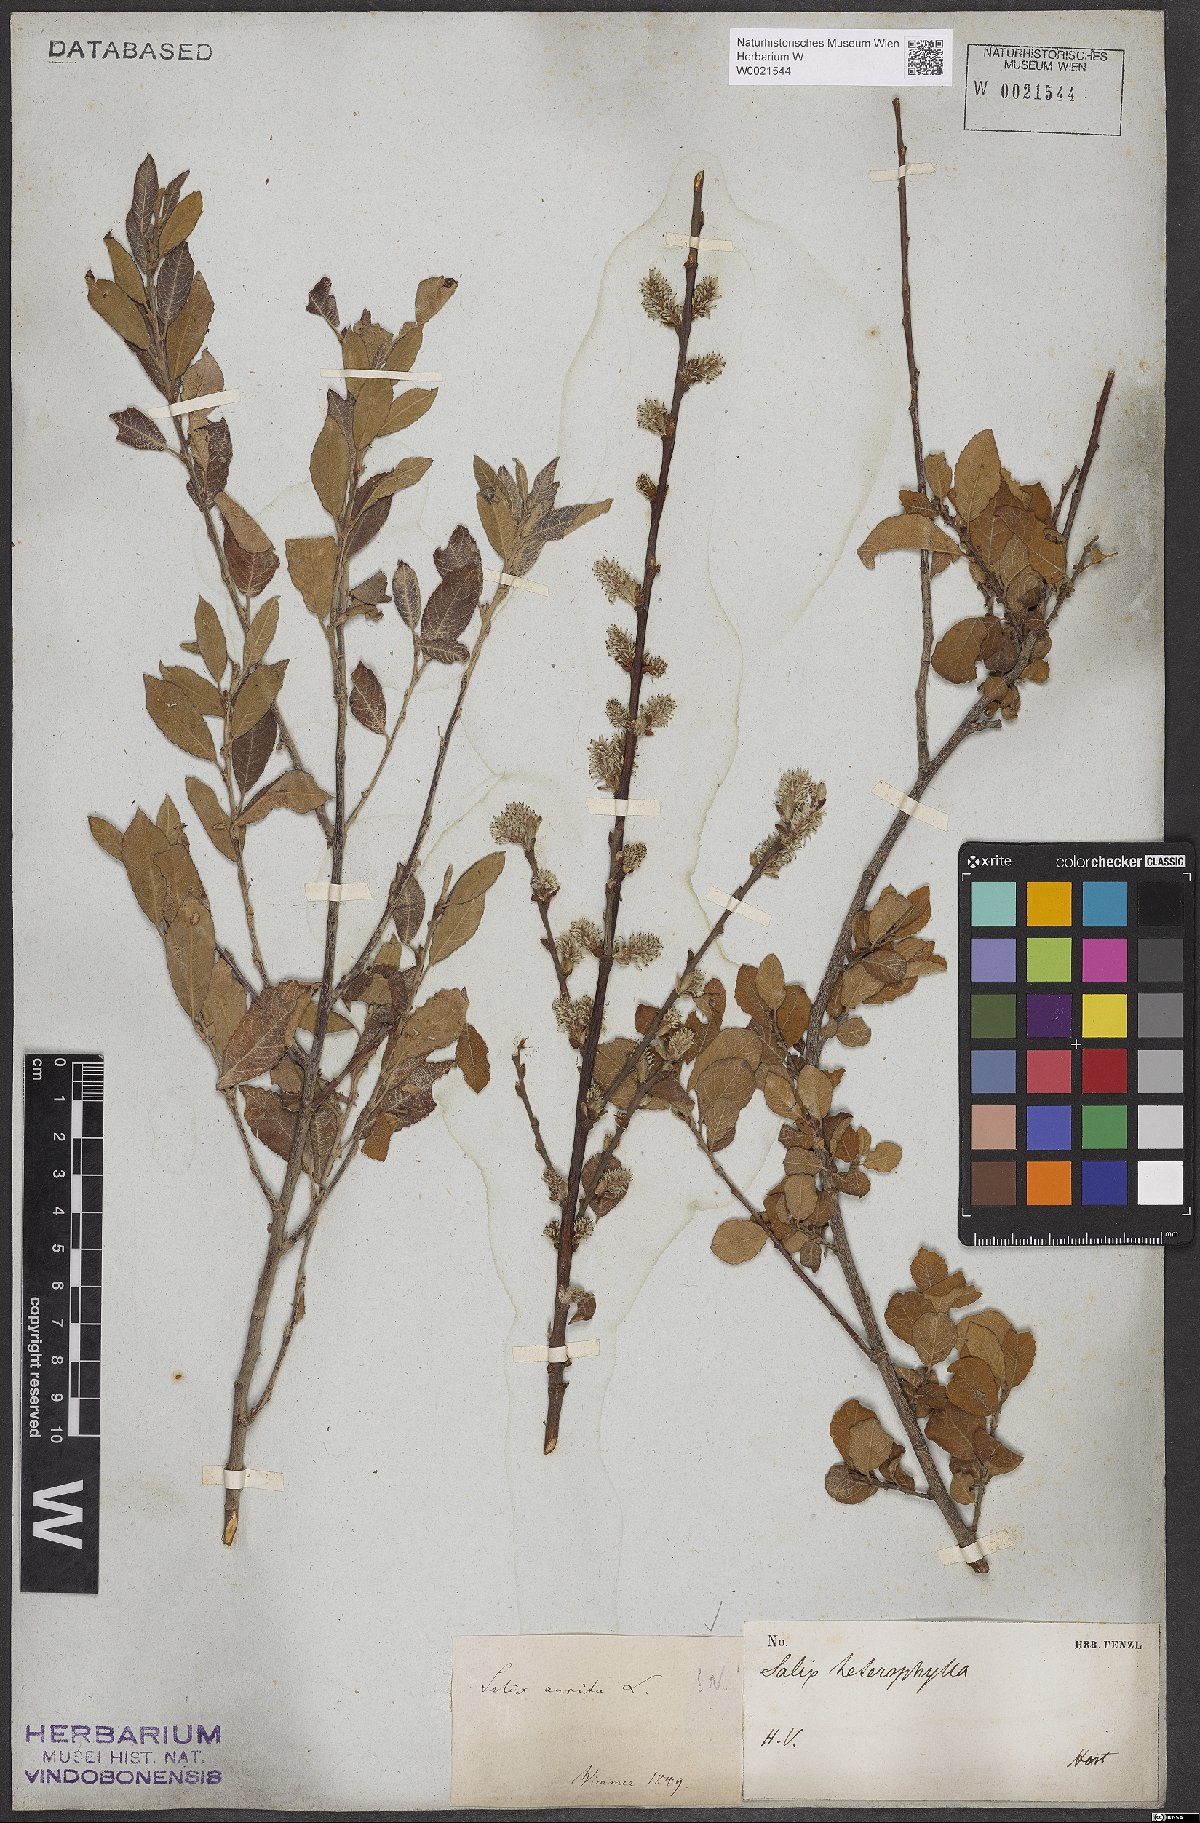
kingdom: Plantae
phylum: Tracheophyta
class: Magnoliopsida
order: Malpighiales
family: Salicaceae
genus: Salix
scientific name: Salix aurita
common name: Eared willow
